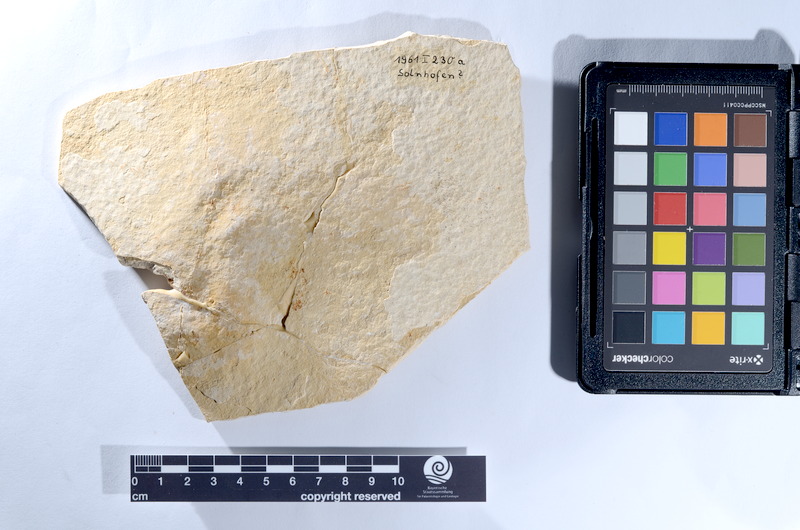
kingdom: Animalia
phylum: Chordata
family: Pholidophoridae
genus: Pholidophorus
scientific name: Pholidophorus
